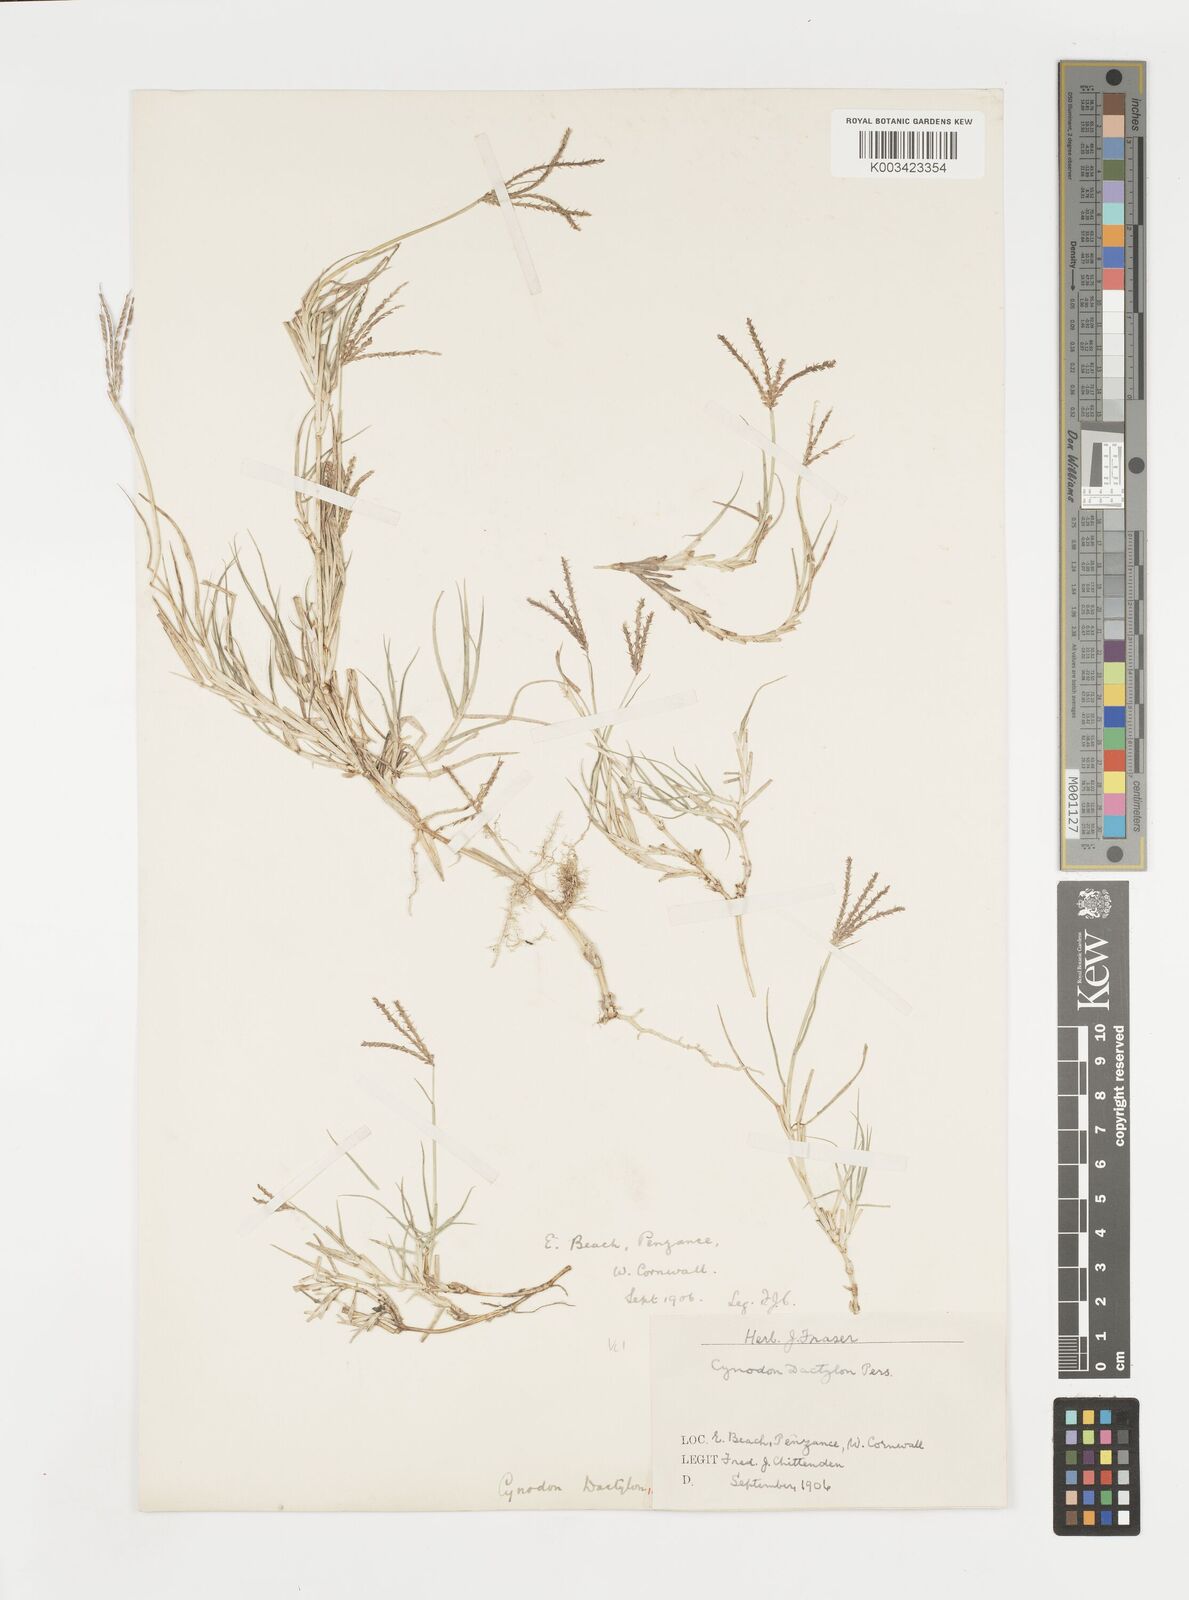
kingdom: Plantae
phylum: Tracheophyta
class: Liliopsida
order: Poales
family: Poaceae
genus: Cynodon
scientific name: Cynodon dactylon
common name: Bermuda grass
